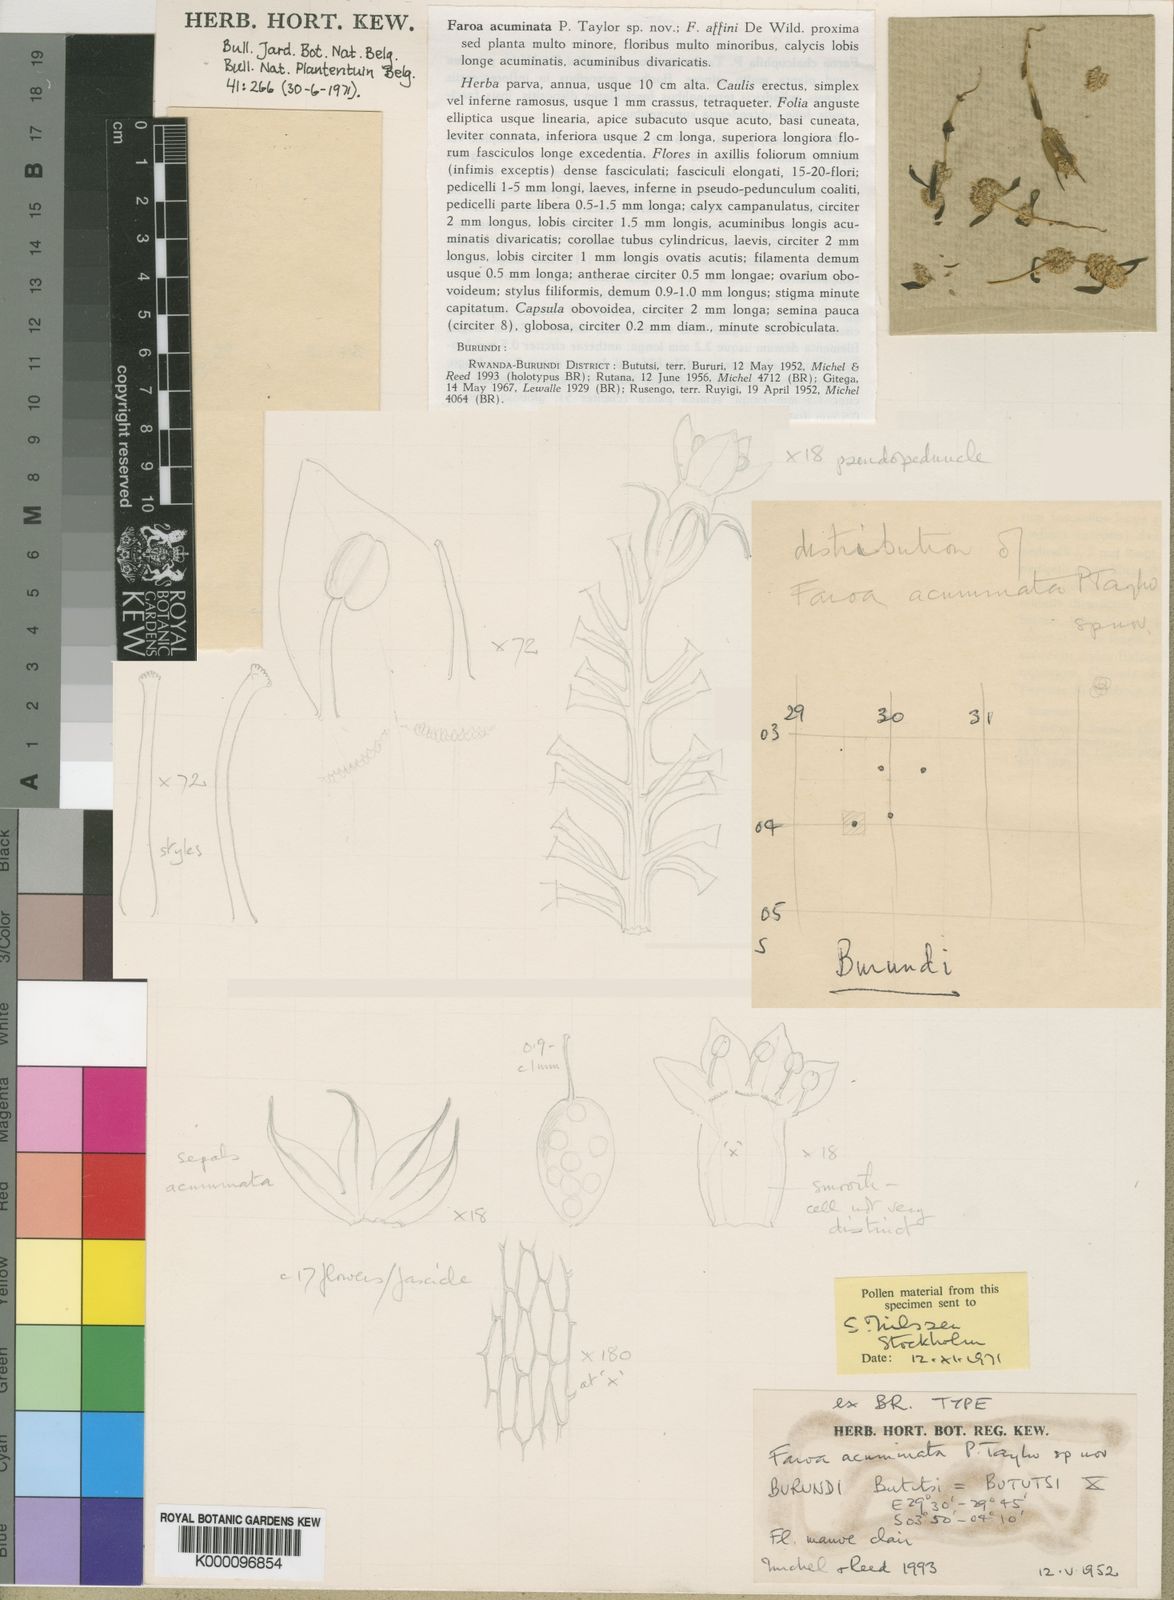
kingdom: Plantae
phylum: Tracheophyta
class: Magnoliopsida
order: Gentianales
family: Gentianaceae
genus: Faroa
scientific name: Faroa acuminata
